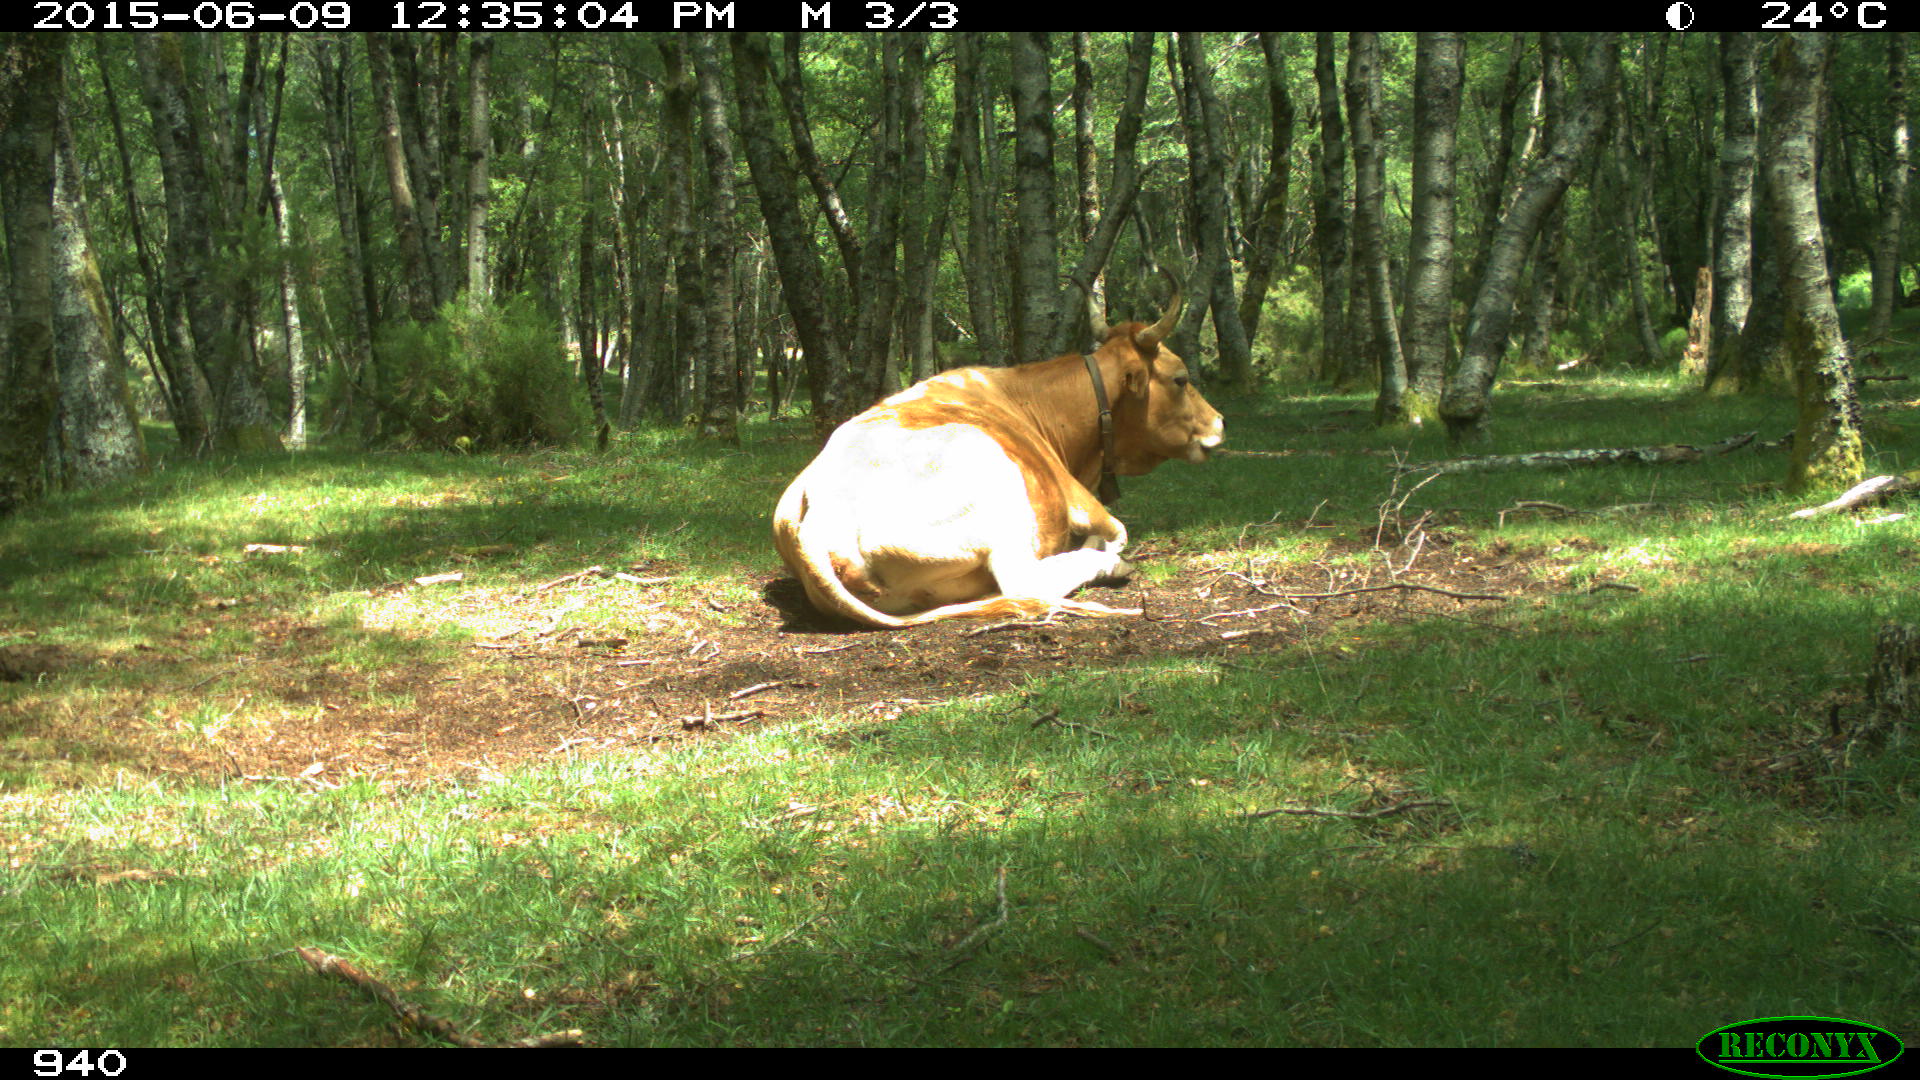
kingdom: Animalia
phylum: Chordata
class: Mammalia
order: Artiodactyla
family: Bovidae
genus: Bos
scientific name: Bos taurus
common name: Domesticated cattle
